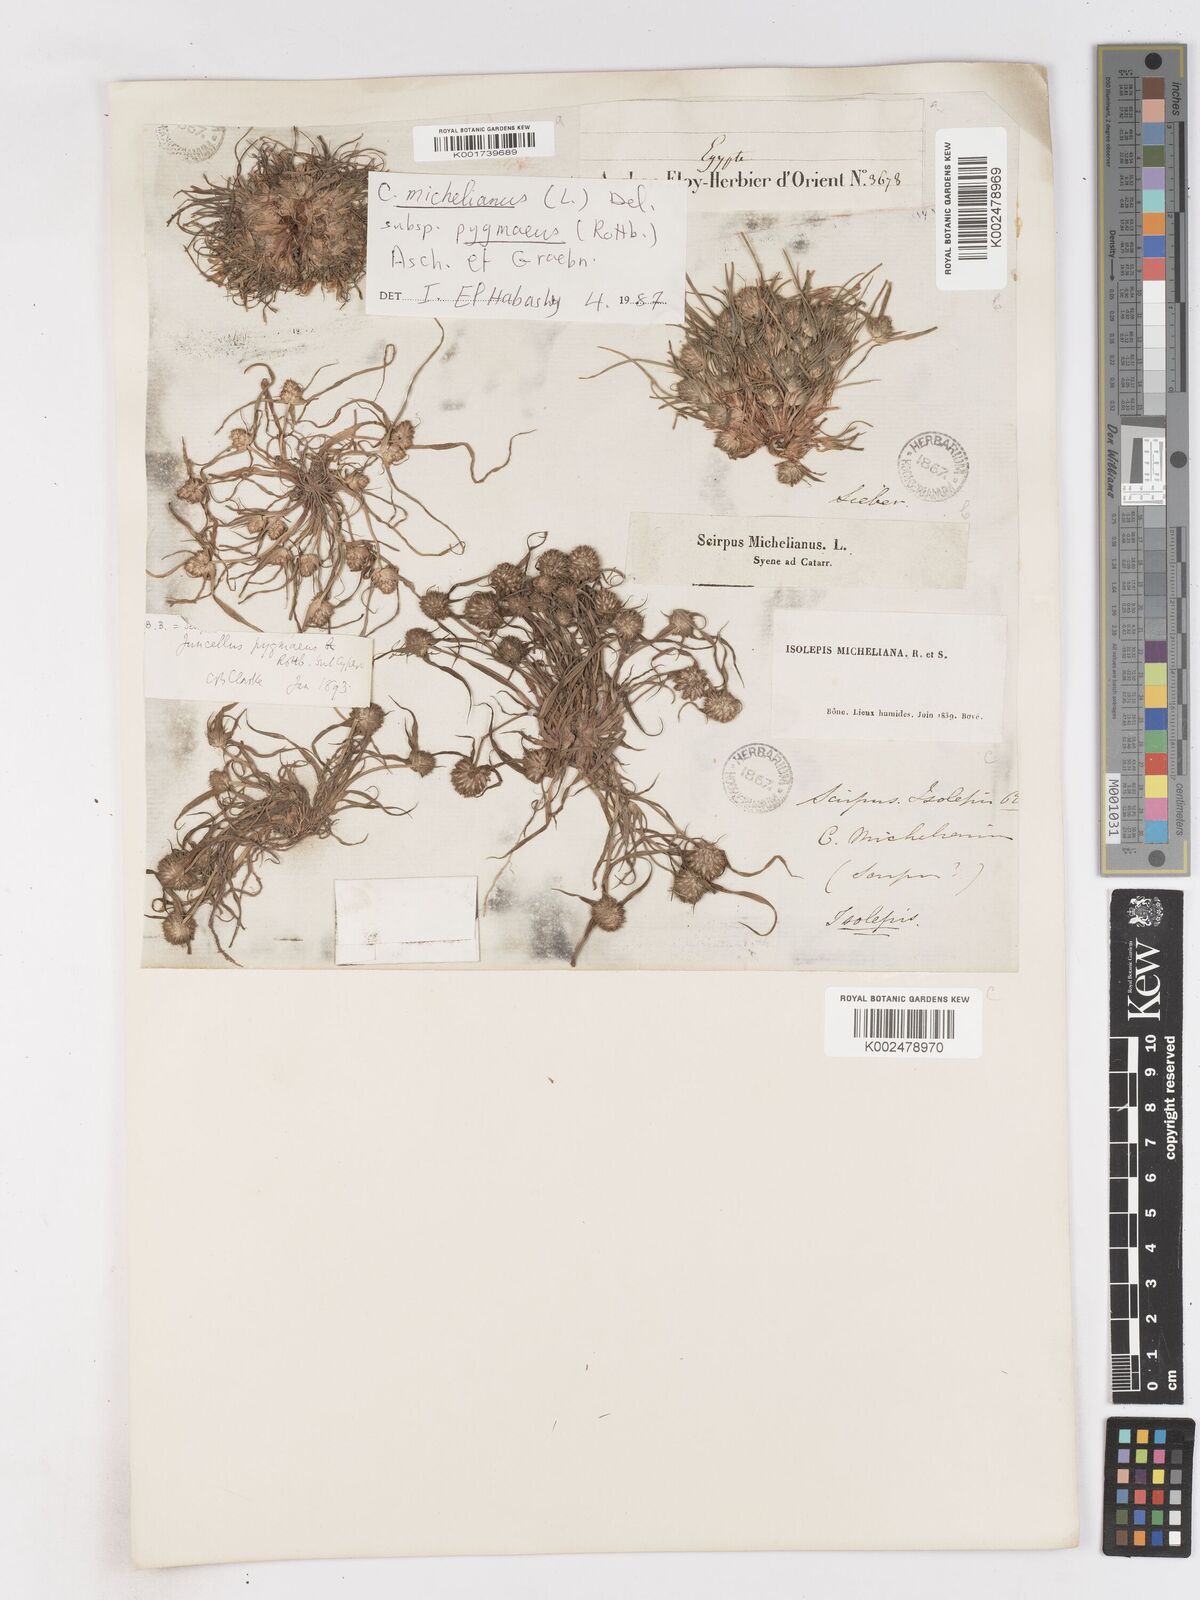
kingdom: Plantae
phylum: Tracheophyta
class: Liliopsida
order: Poales
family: Cyperaceae
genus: Cyperus
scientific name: Cyperus michelianus
